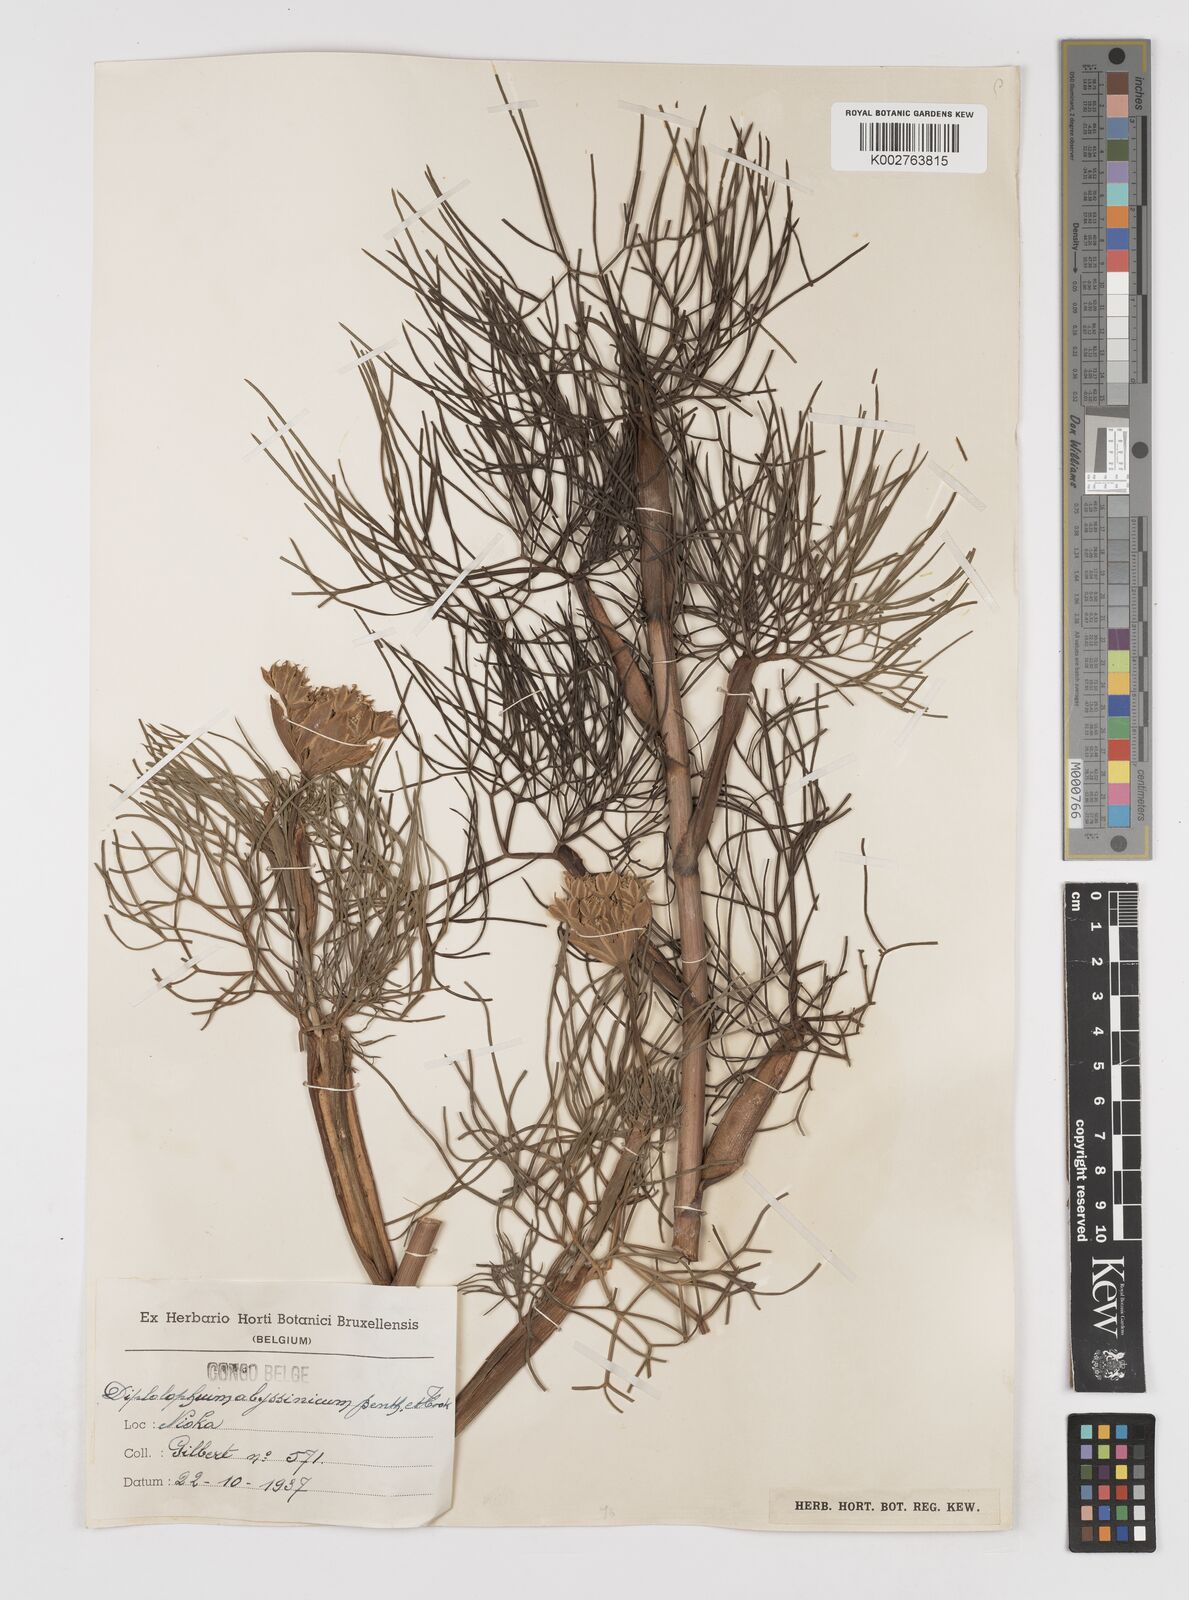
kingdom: Plantae
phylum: Tracheophyta
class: Magnoliopsida
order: Apiales
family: Apiaceae
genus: Diplolophium
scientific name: Diplolophium africanum
